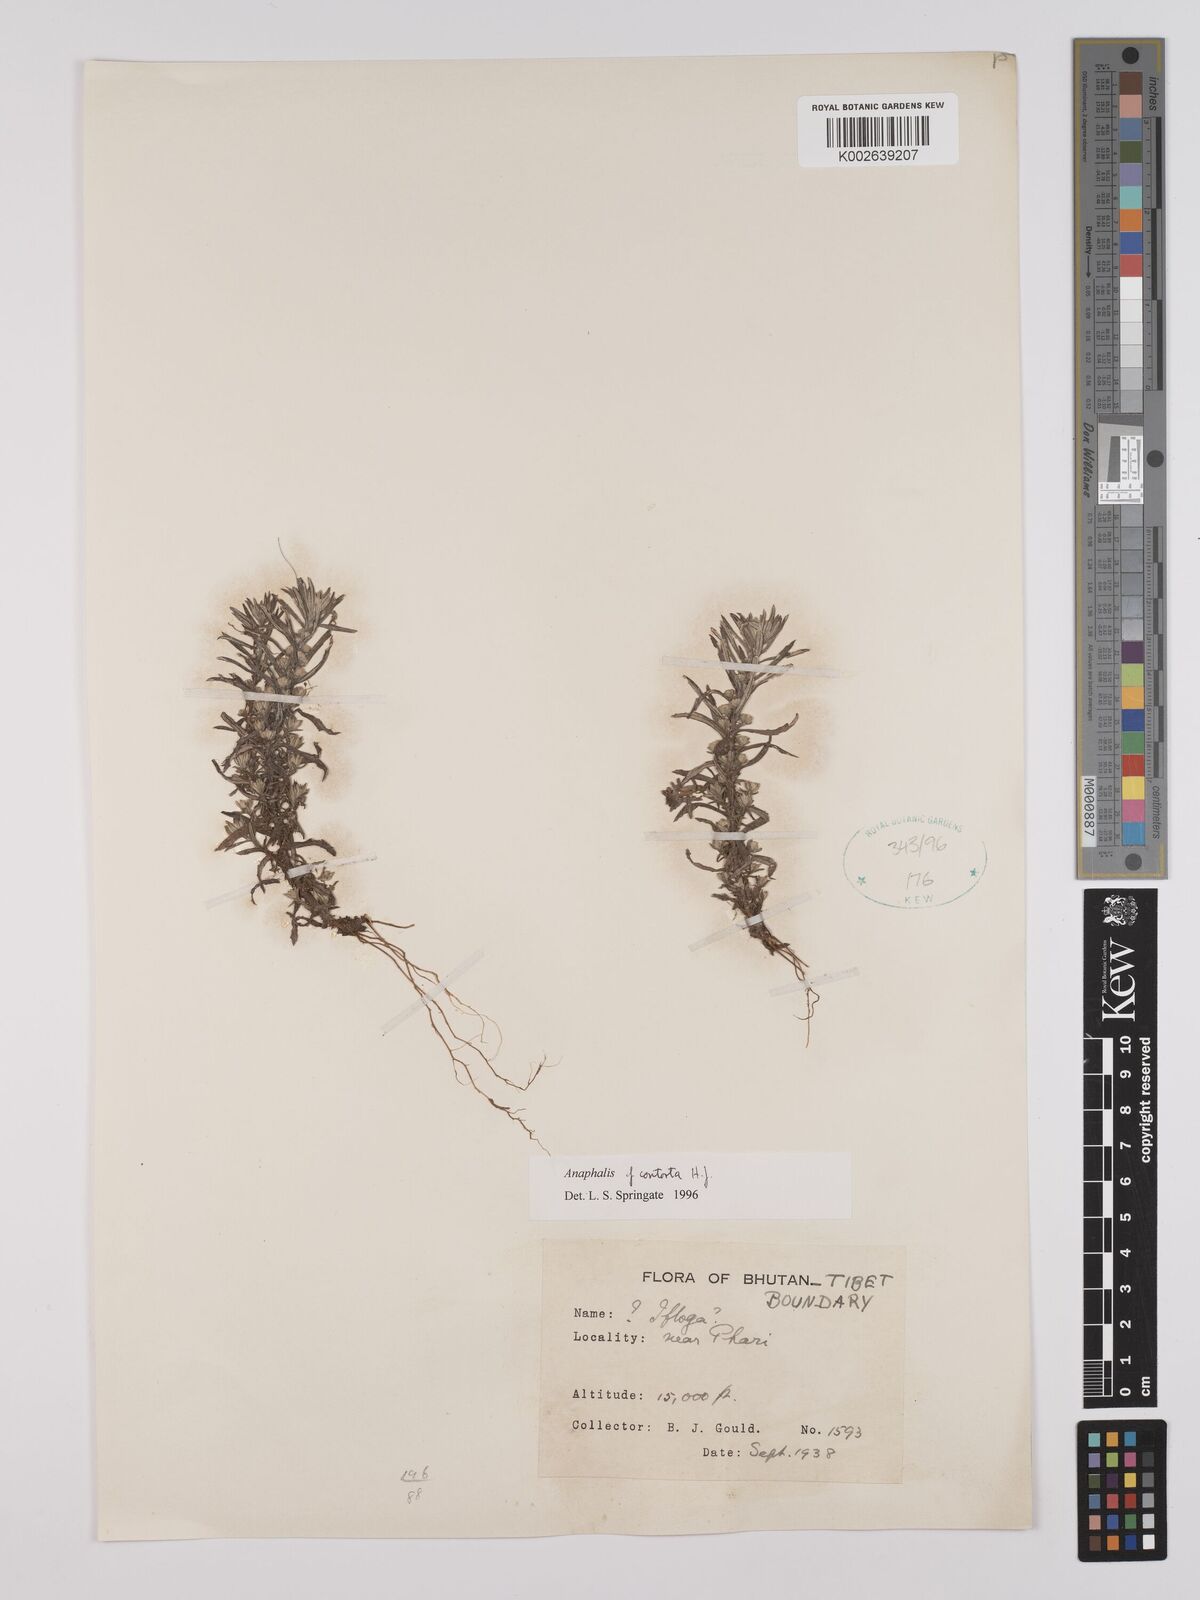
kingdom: Plantae
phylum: Tracheophyta
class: Magnoliopsida
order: Asterales
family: Asteraceae
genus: Anaphalis
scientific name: Anaphalis contorta
